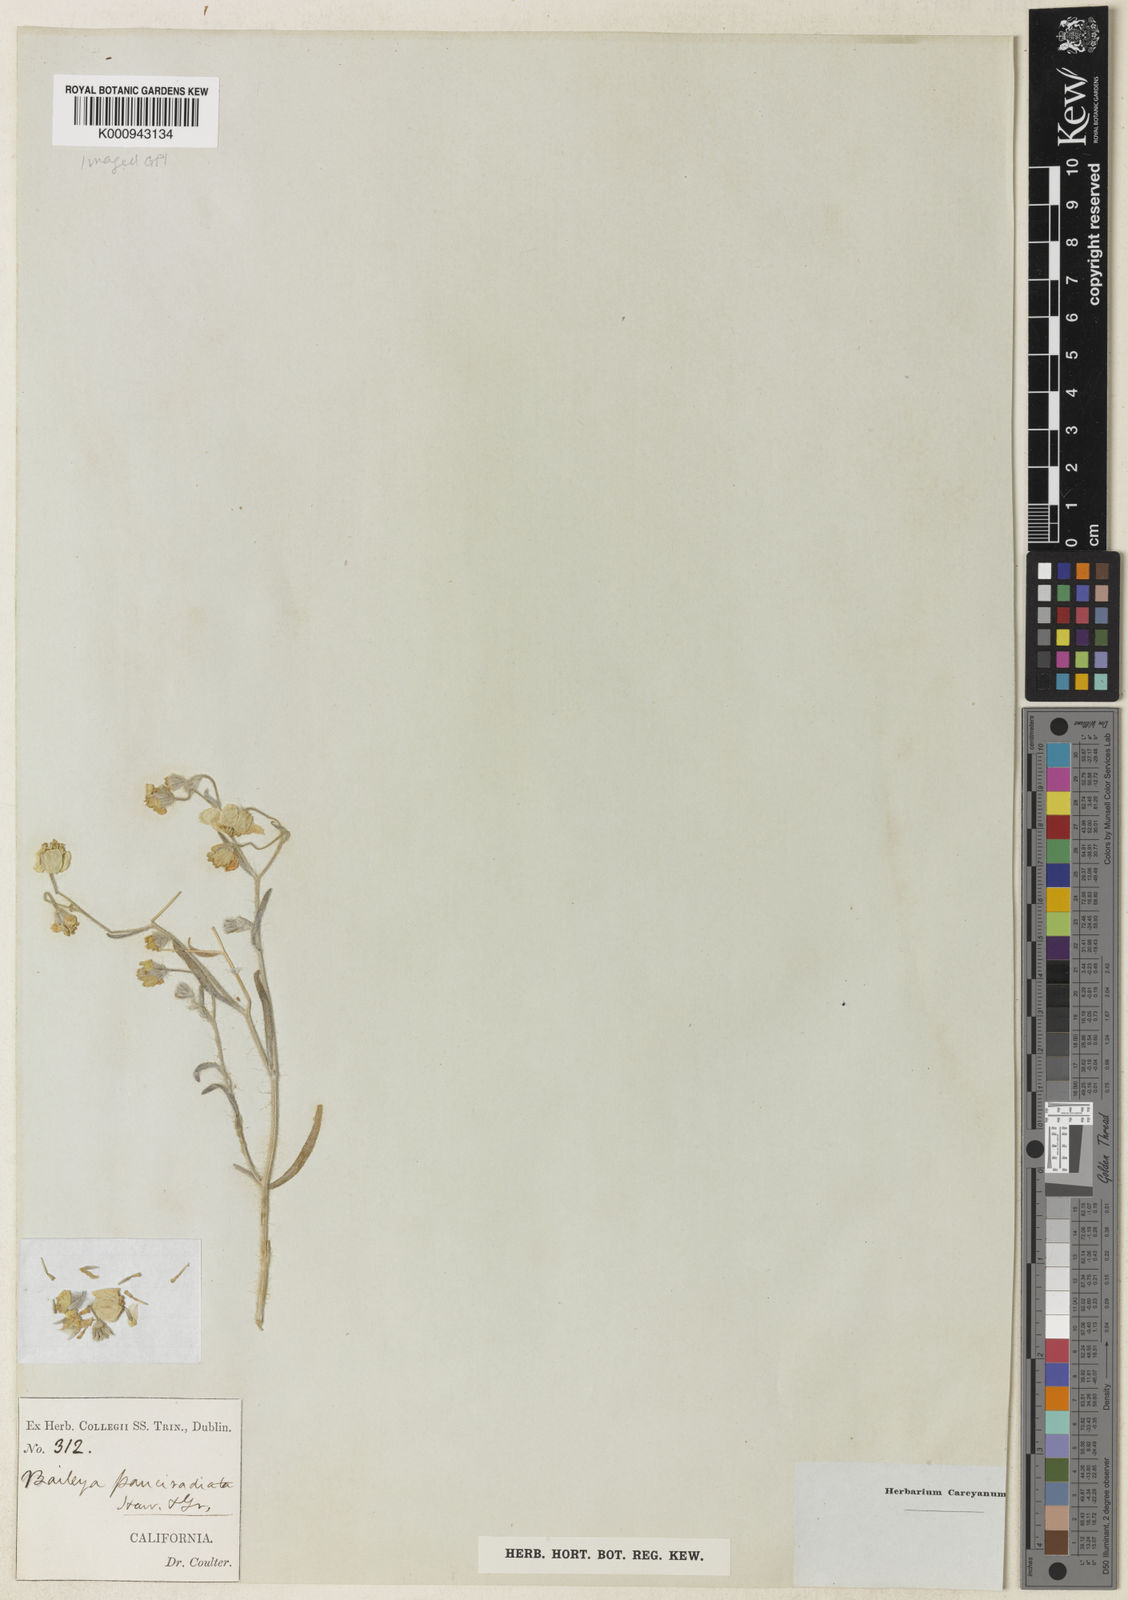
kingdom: Plantae
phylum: Tracheophyta
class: Magnoliopsida
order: Asterales
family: Asteraceae
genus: Hymenoxys
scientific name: Hymenoxys richardsonii
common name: Pingue rubberweed
